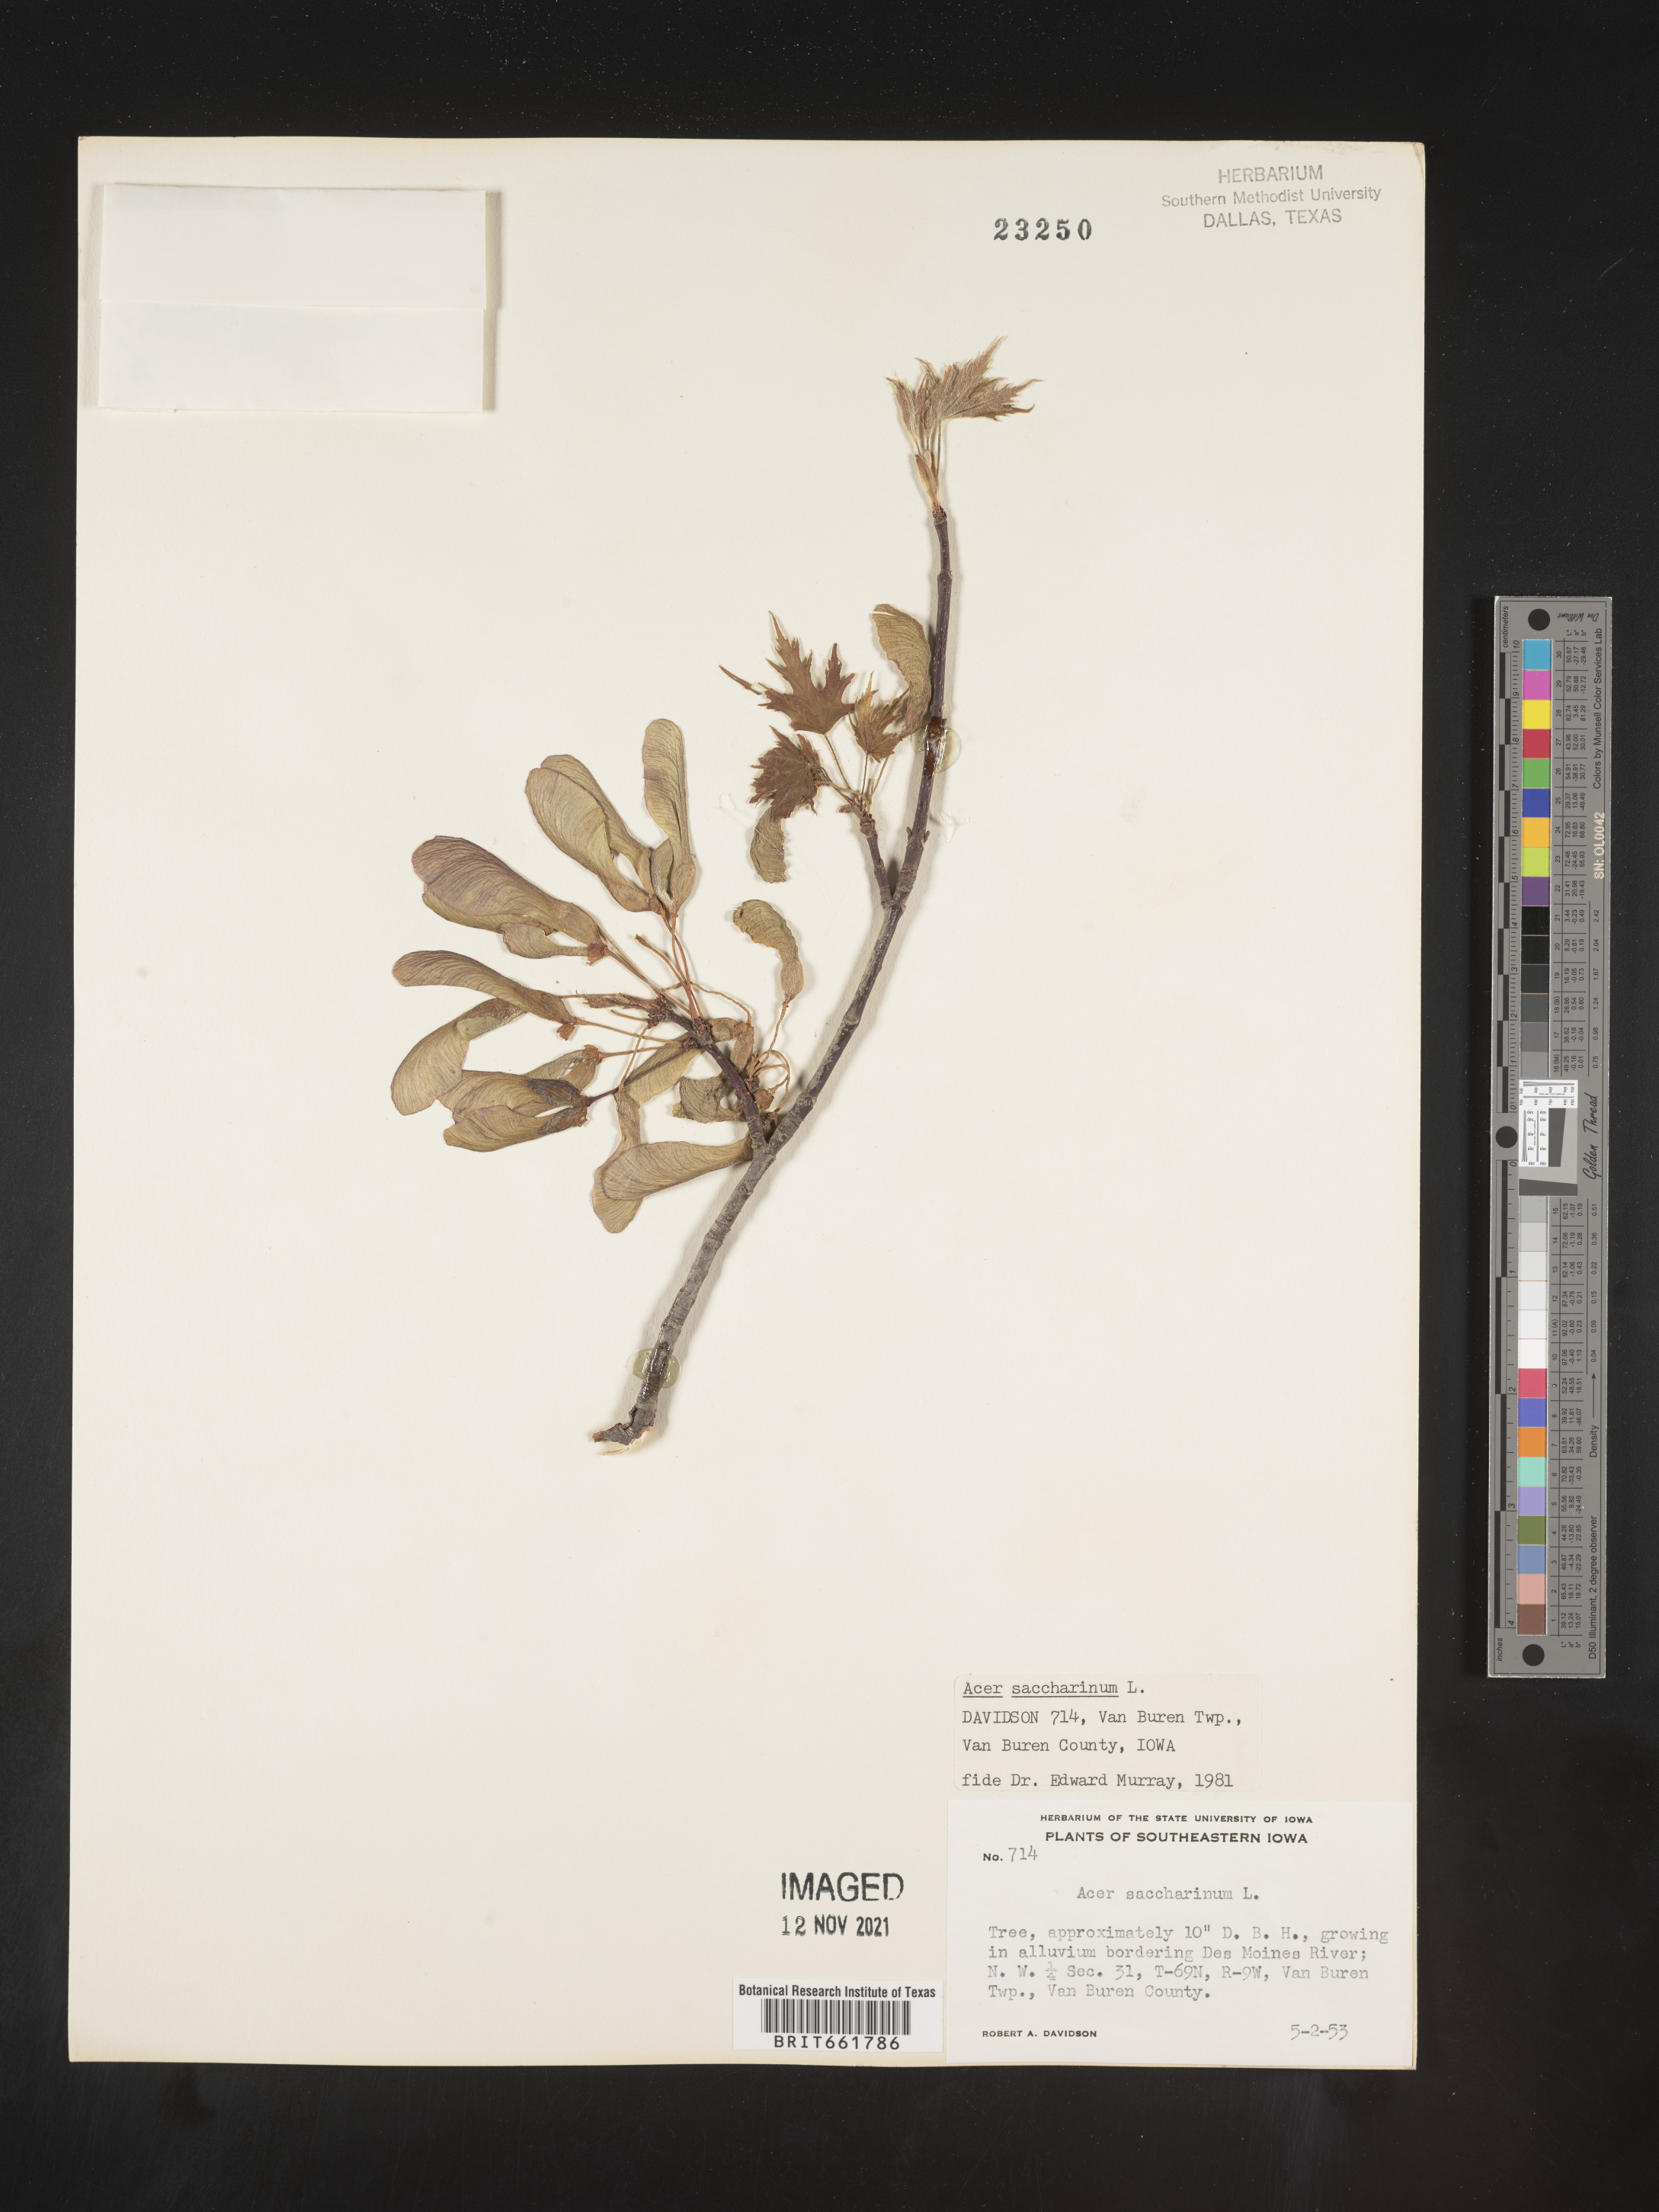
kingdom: Plantae
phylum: Tracheophyta
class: Magnoliopsida
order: Sapindales
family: Sapindaceae
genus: Acer
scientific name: Acer saccharinum
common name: Silver maple
